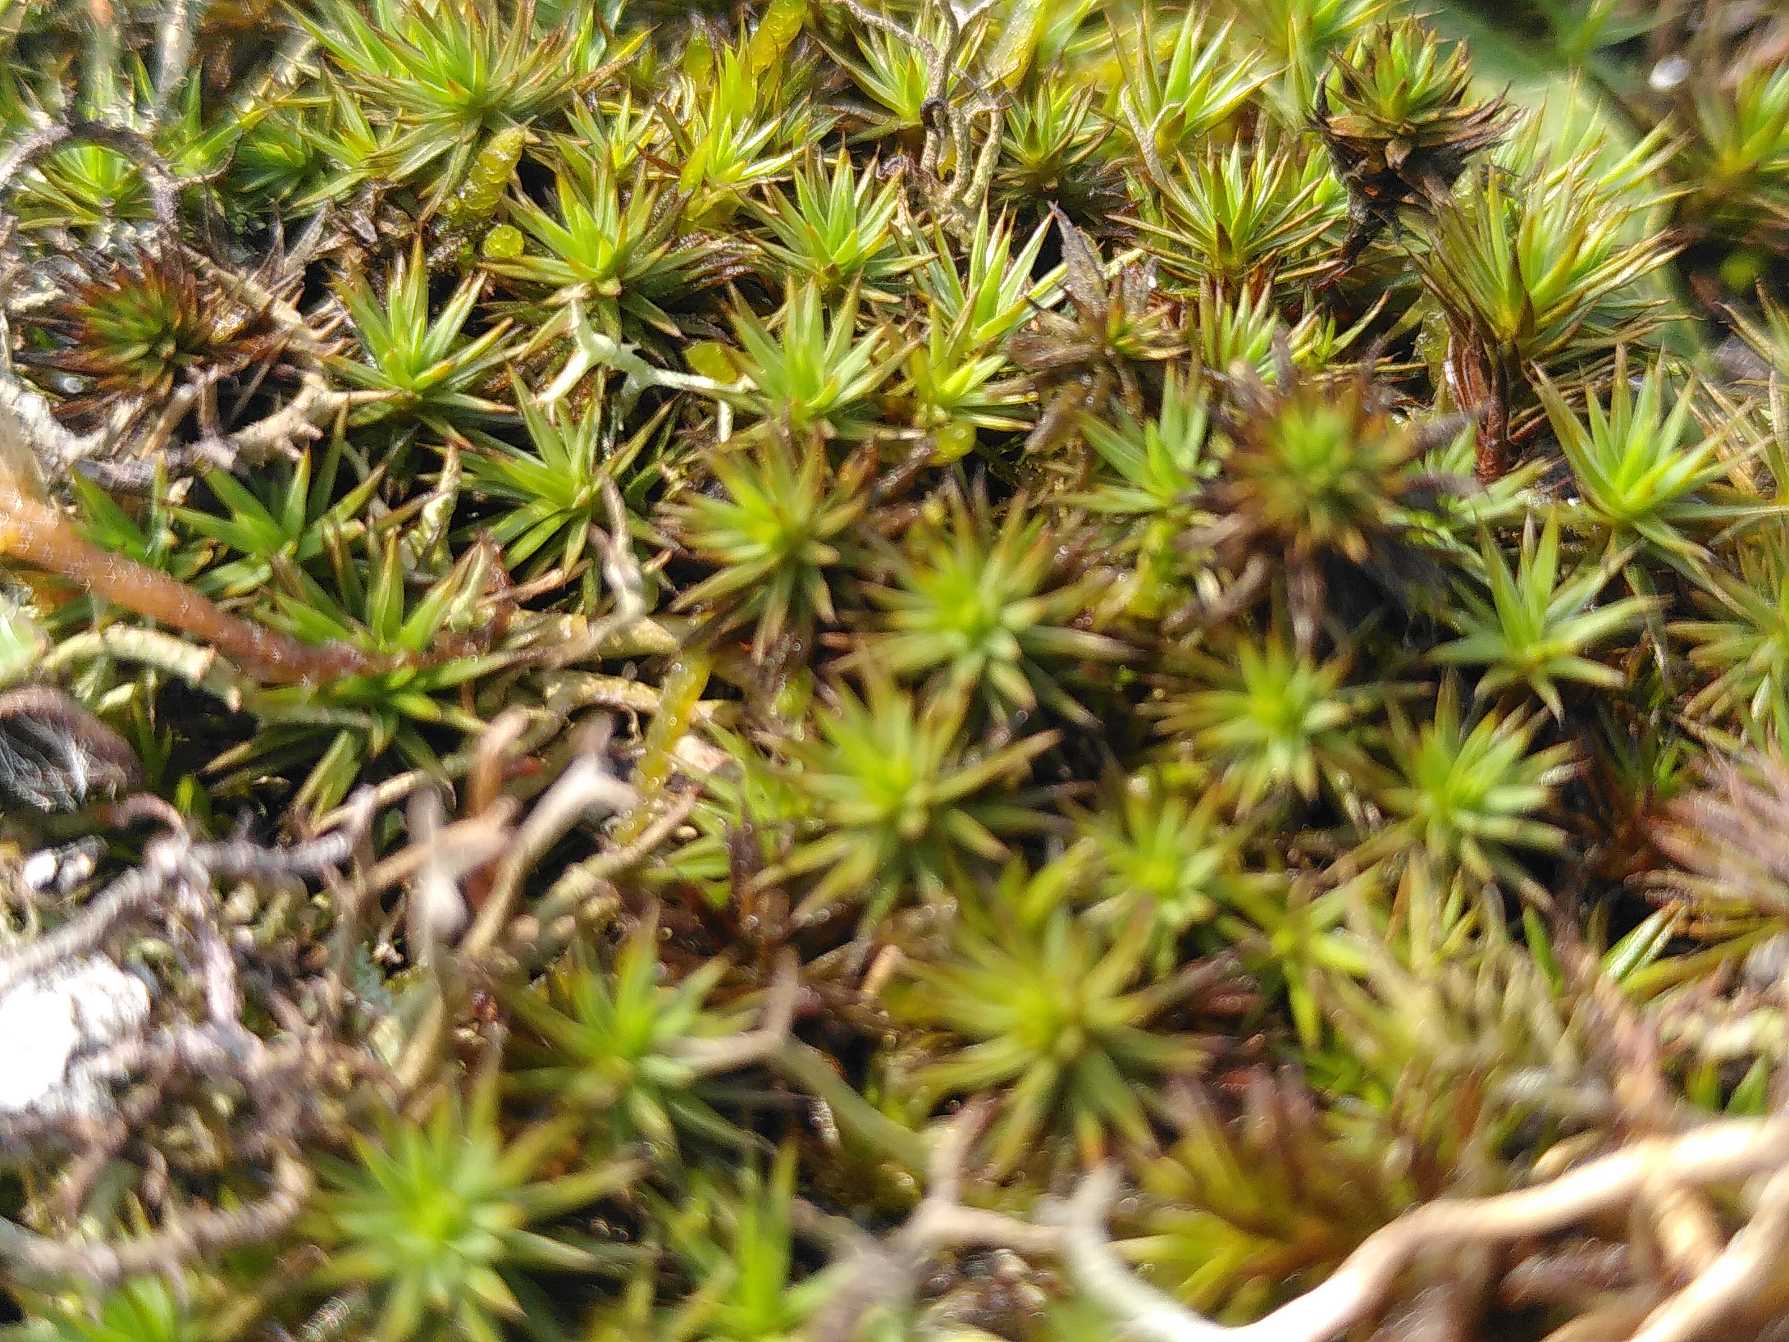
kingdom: Plantae
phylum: Bryophyta
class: Polytrichopsida
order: Polytrichales
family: Polytrichaceae
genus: Polytrichum
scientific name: Polytrichum juniperinum
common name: Ene-jomfruhår
